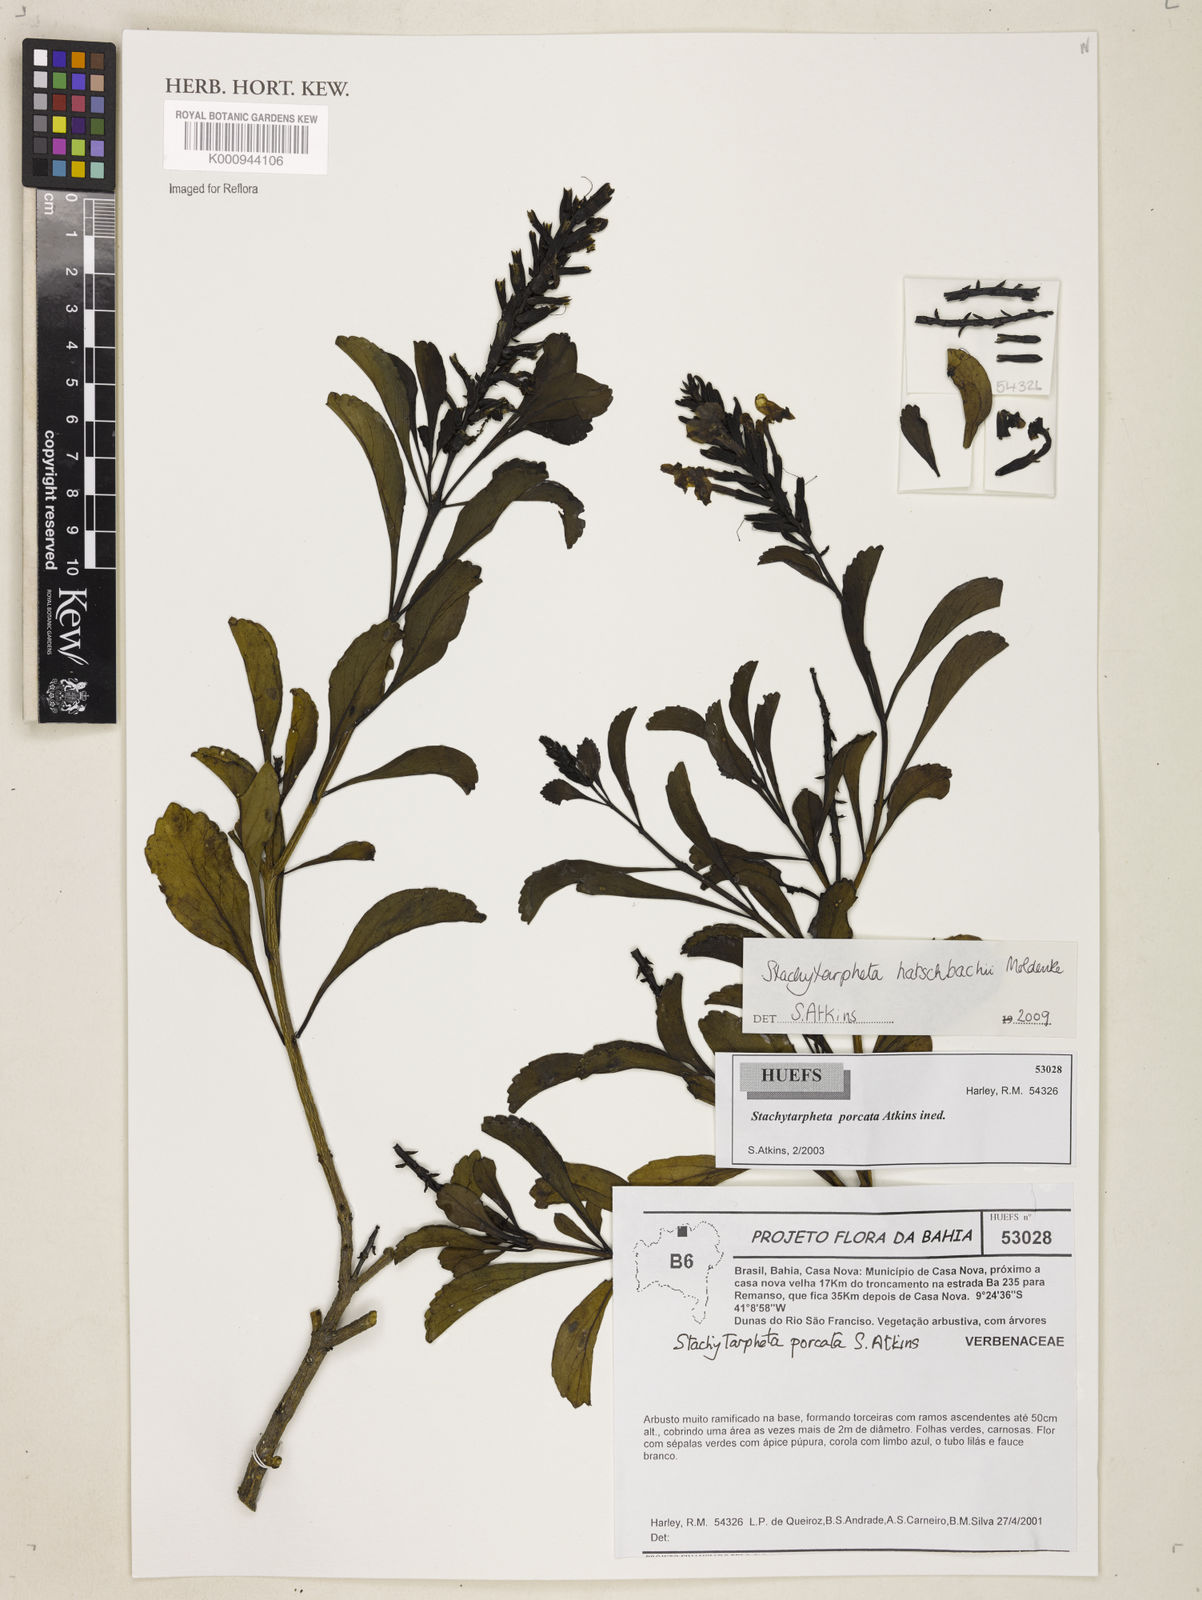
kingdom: Plantae
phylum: Tracheophyta
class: Magnoliopsida
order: Lamiales
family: Verbenaceae
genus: Stachytarpheta
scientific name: Stachytarpheta hatschbachii
